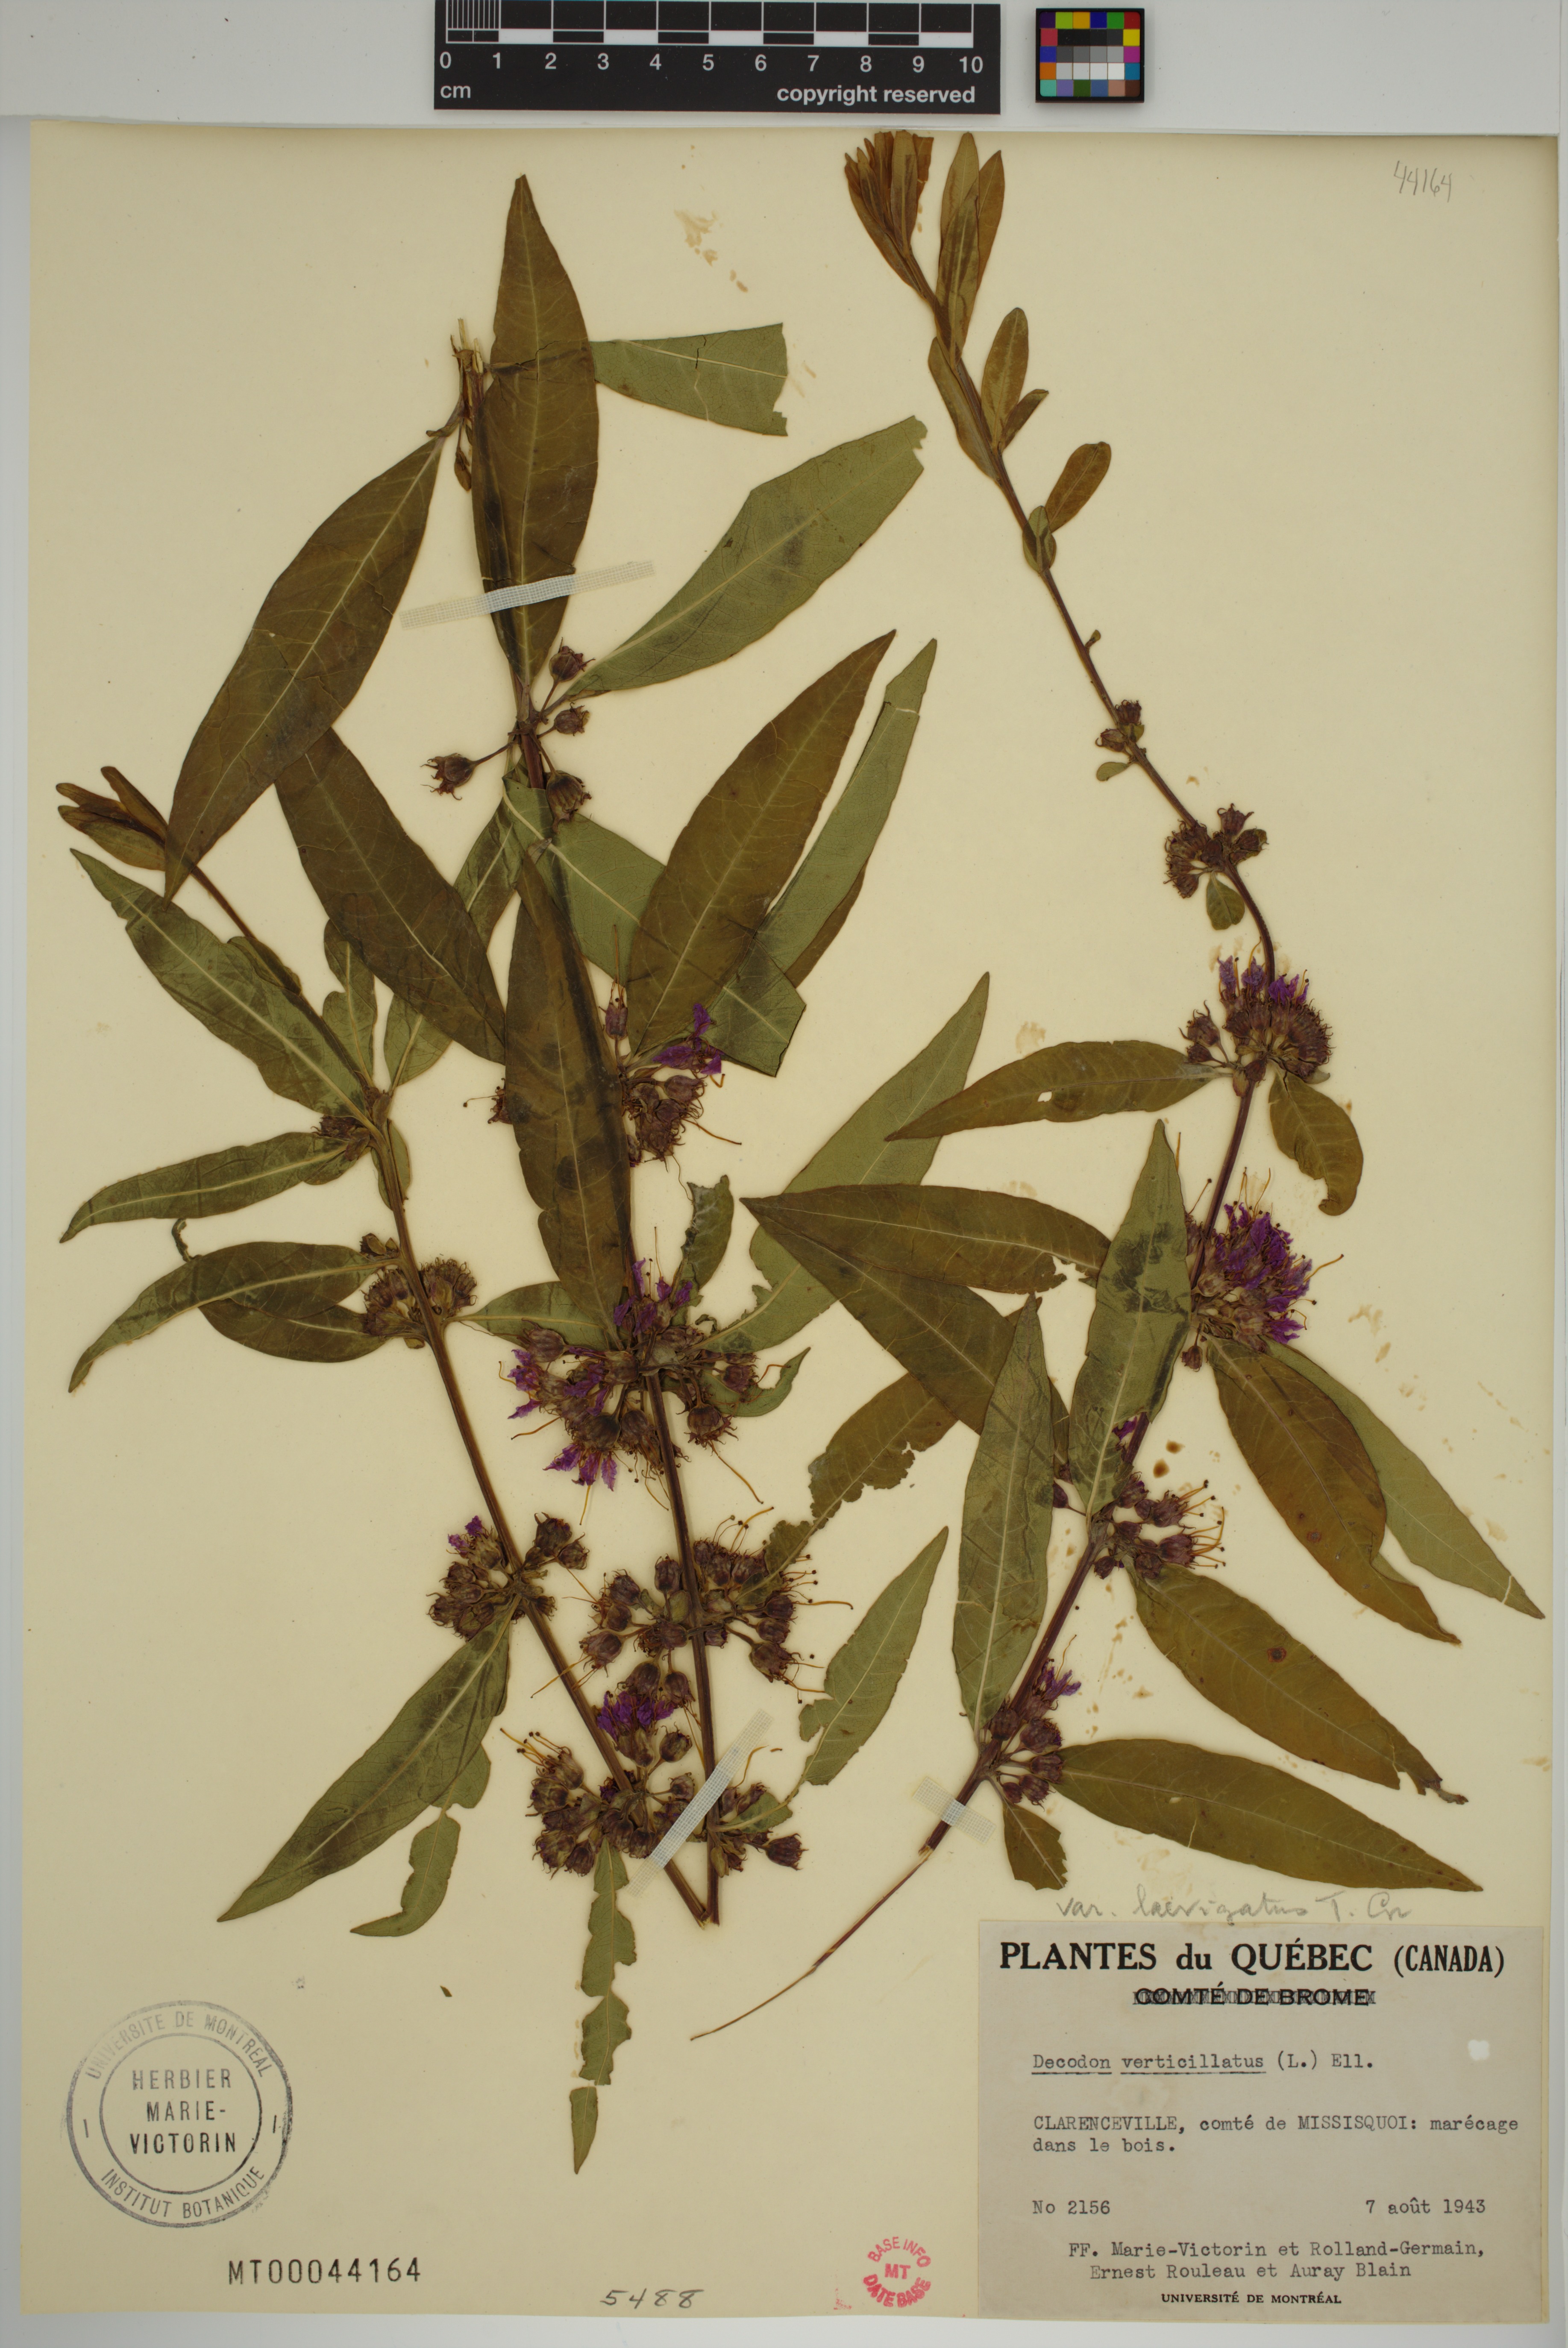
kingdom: Plantae
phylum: Tracheophyta
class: Magnoliopsida
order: Myrtales
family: Lythraceae
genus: Decodon
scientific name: Decodon verticillatus
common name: Hairy swamp loosestrife
